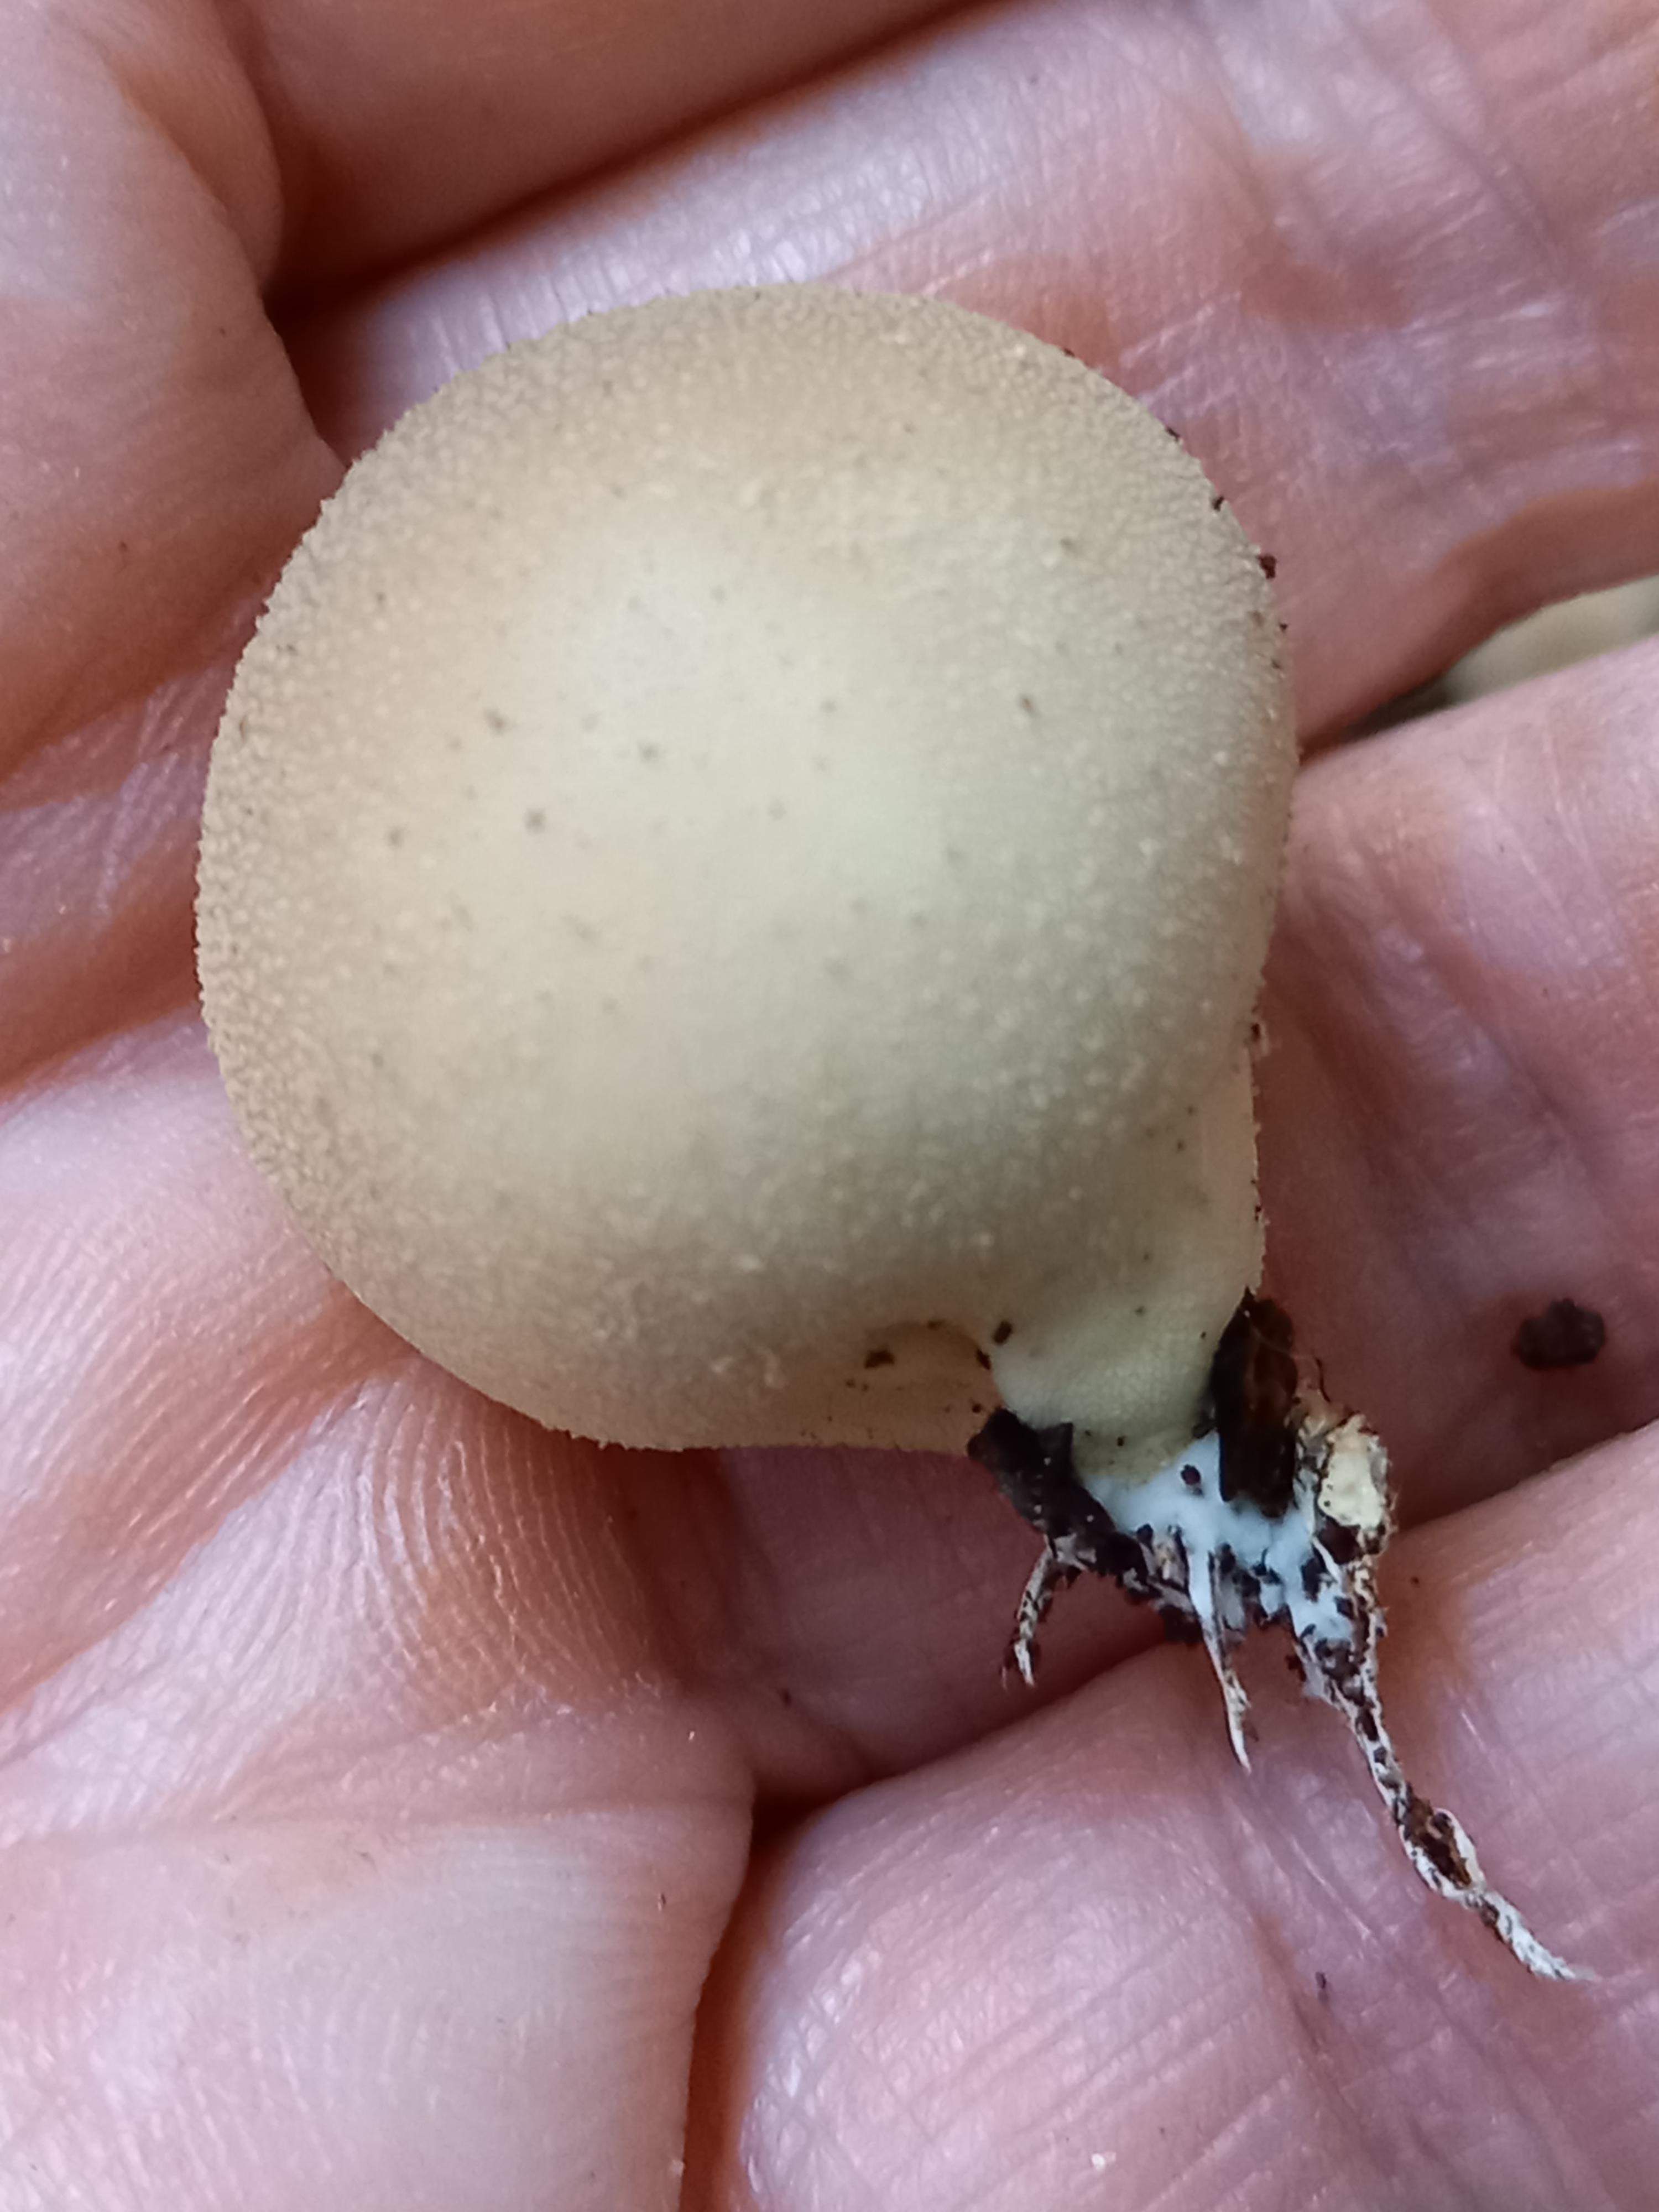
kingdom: Fungi
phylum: Basidiomycota
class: Agaricomycetes
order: Agaricales
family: Lycoperdaceae
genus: Apioperdon
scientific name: Apioperdon pyriforme
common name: pære-støvbold
